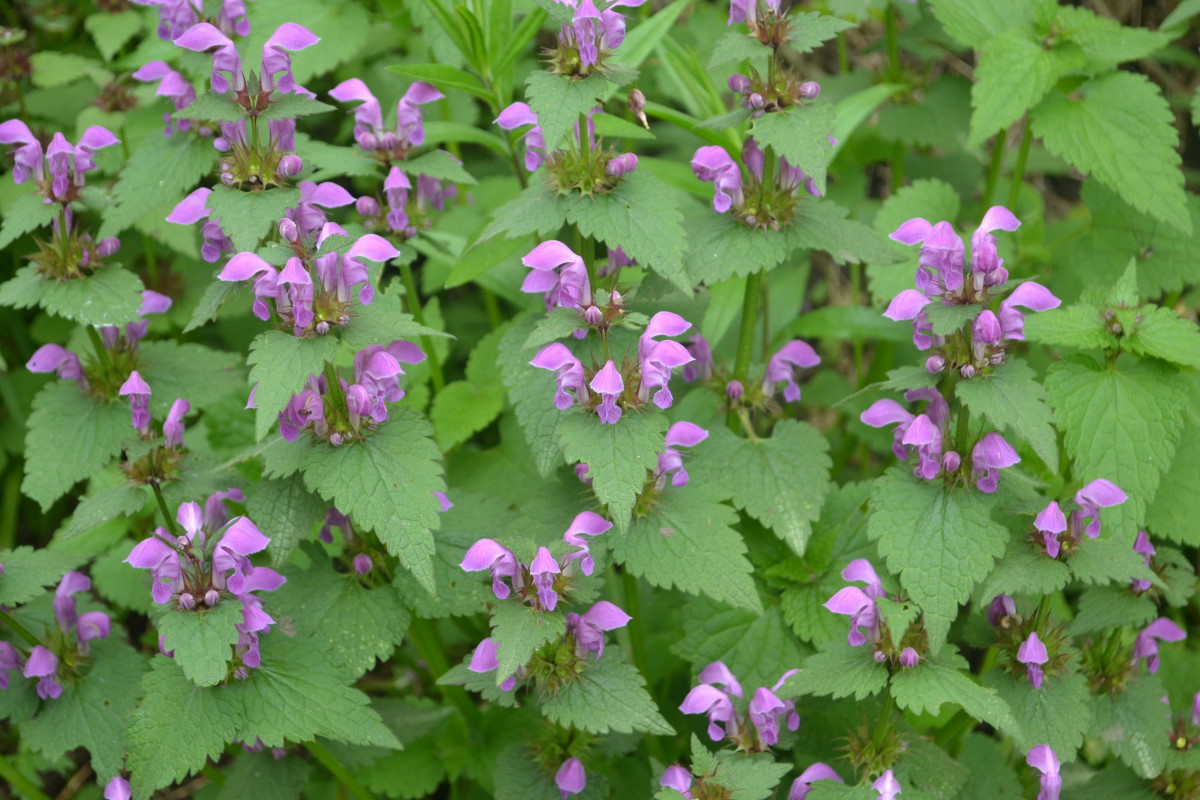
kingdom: Plantae
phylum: Tracheophyta
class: Magnoliopsida
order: Lamiales
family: Lamiaceae
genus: Lamium
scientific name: Lamium purpureum
